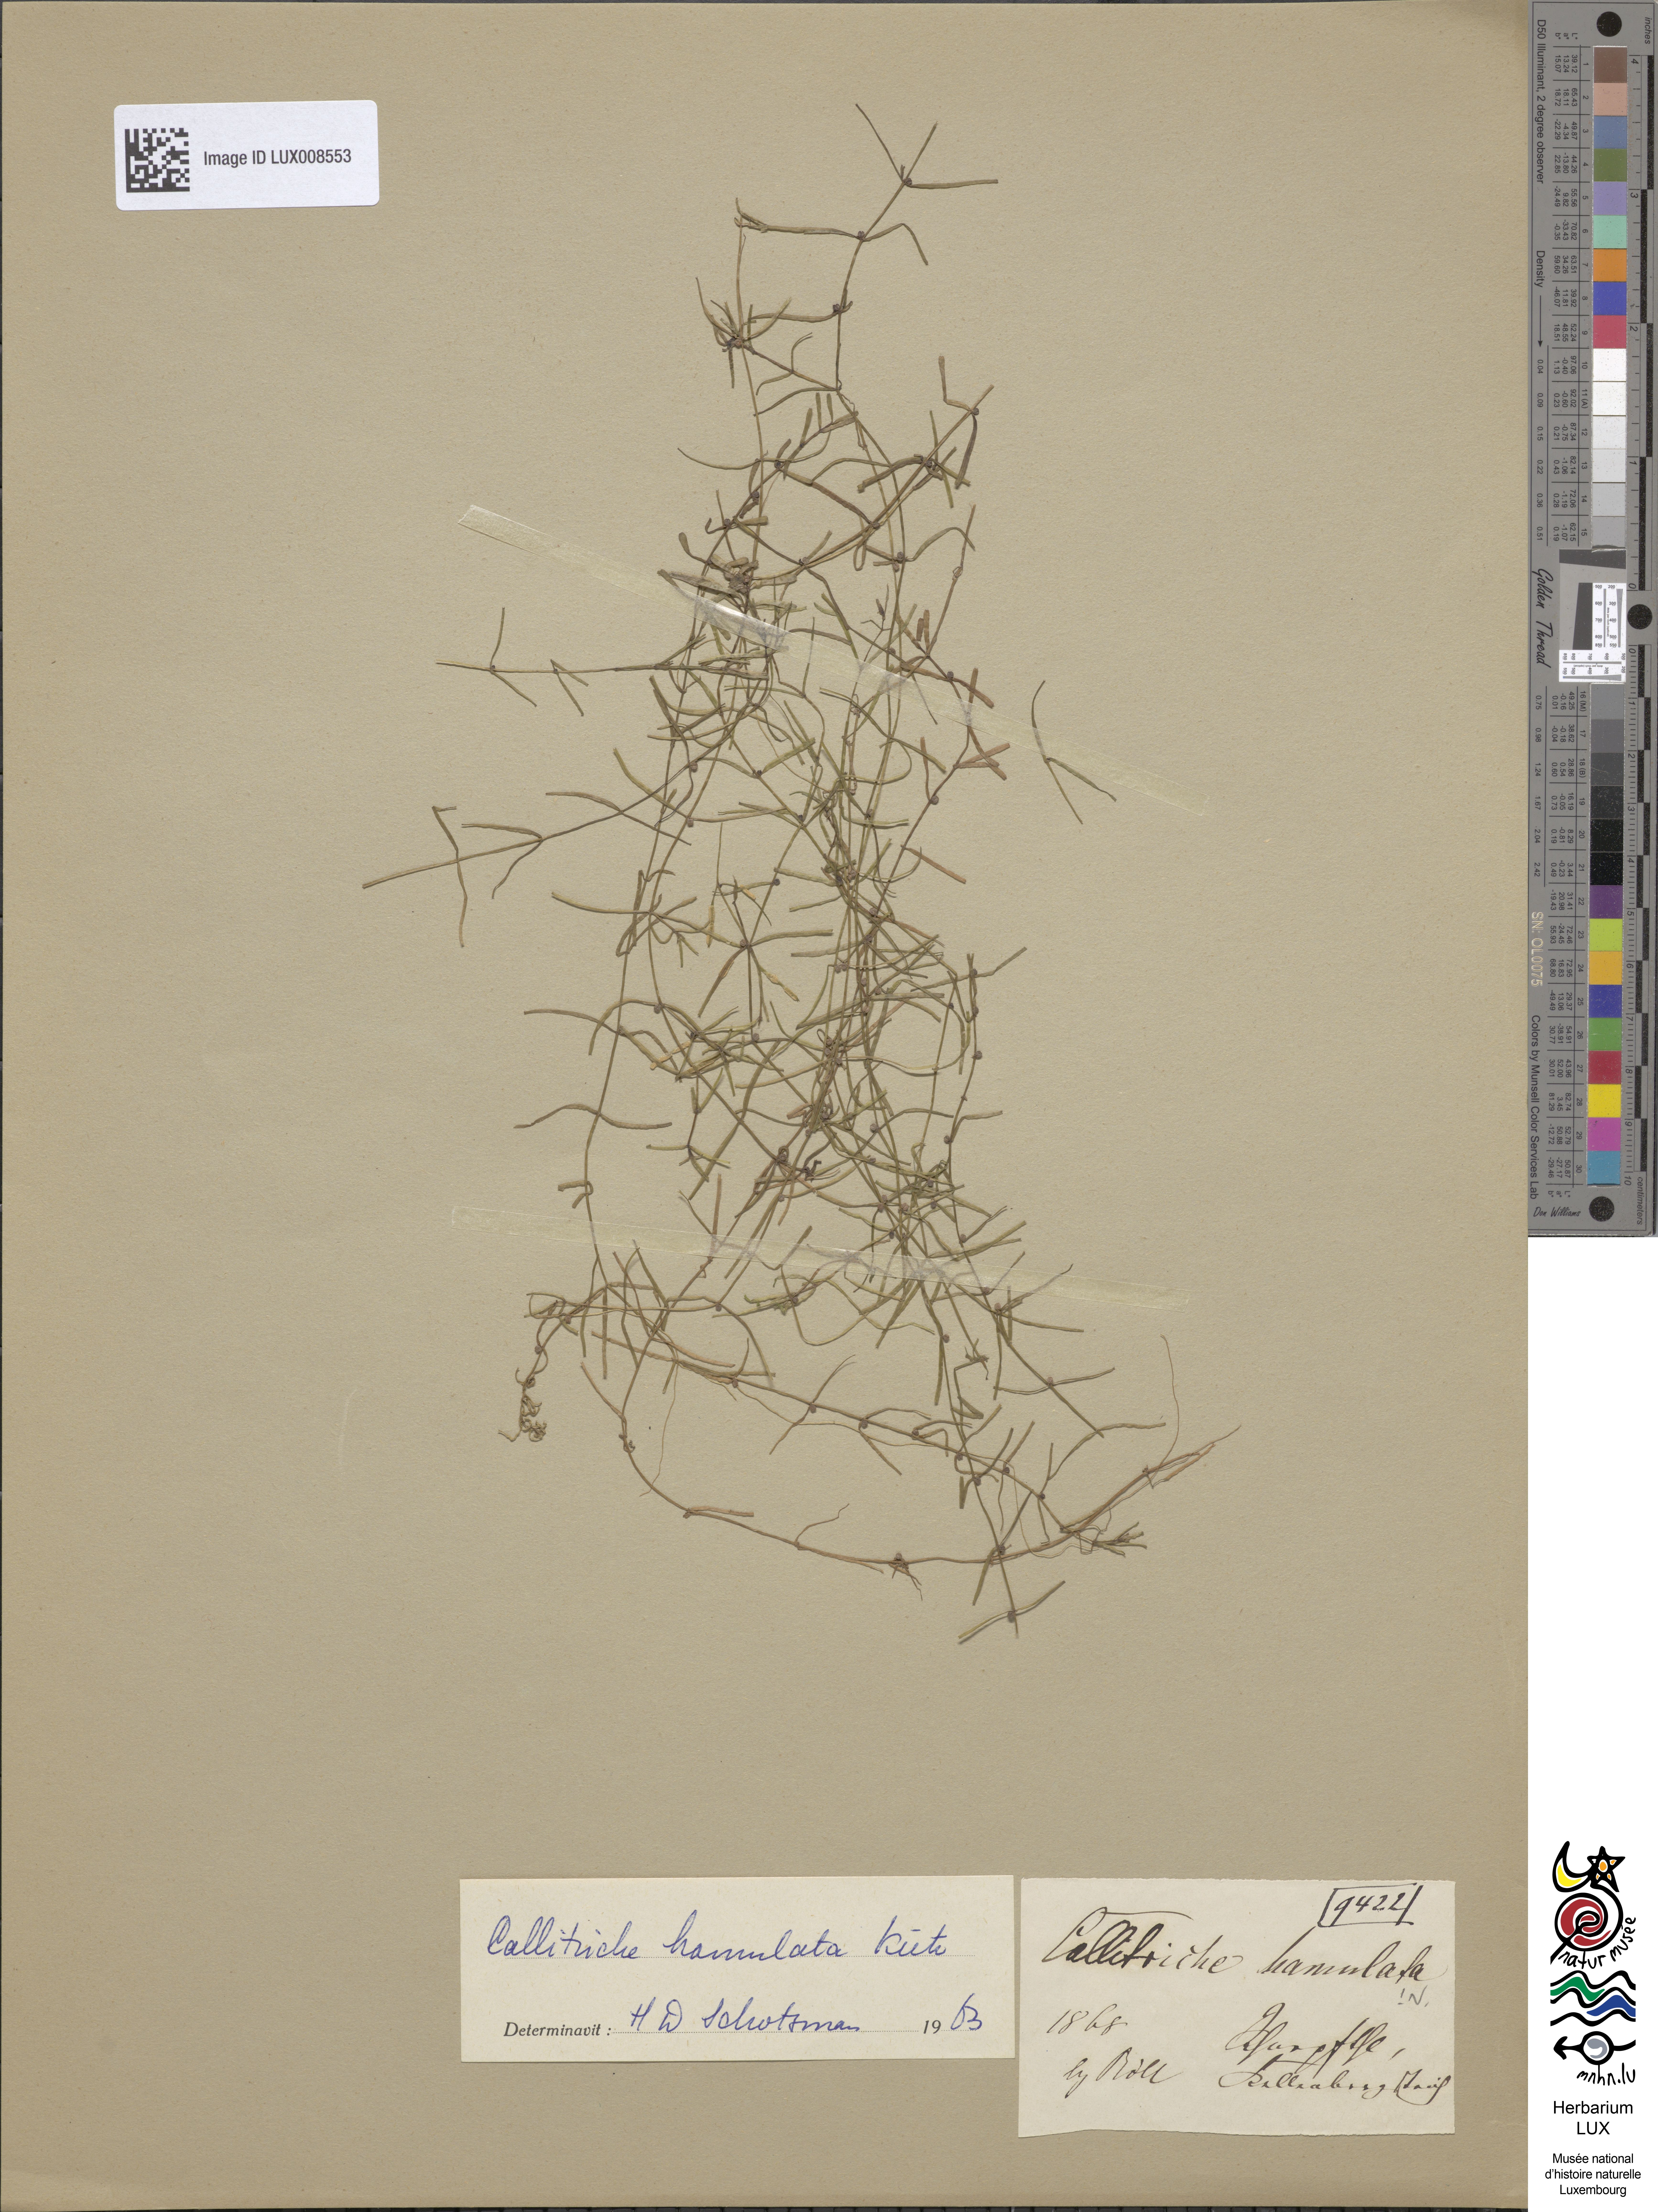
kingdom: Plantae
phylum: Tracheophyta
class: Magnoliopsida
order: Lamiales
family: Plantaginaceae
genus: Callitriche
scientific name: Callitriche hamulata
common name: Intermediate water-starwort
